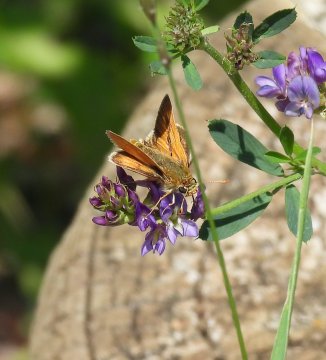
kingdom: Animalia
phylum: Arthropoda
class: Insecta
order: Lepidoptera
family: Hesperiidae
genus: Polites
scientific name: Polites
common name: Long Dash Skipper
